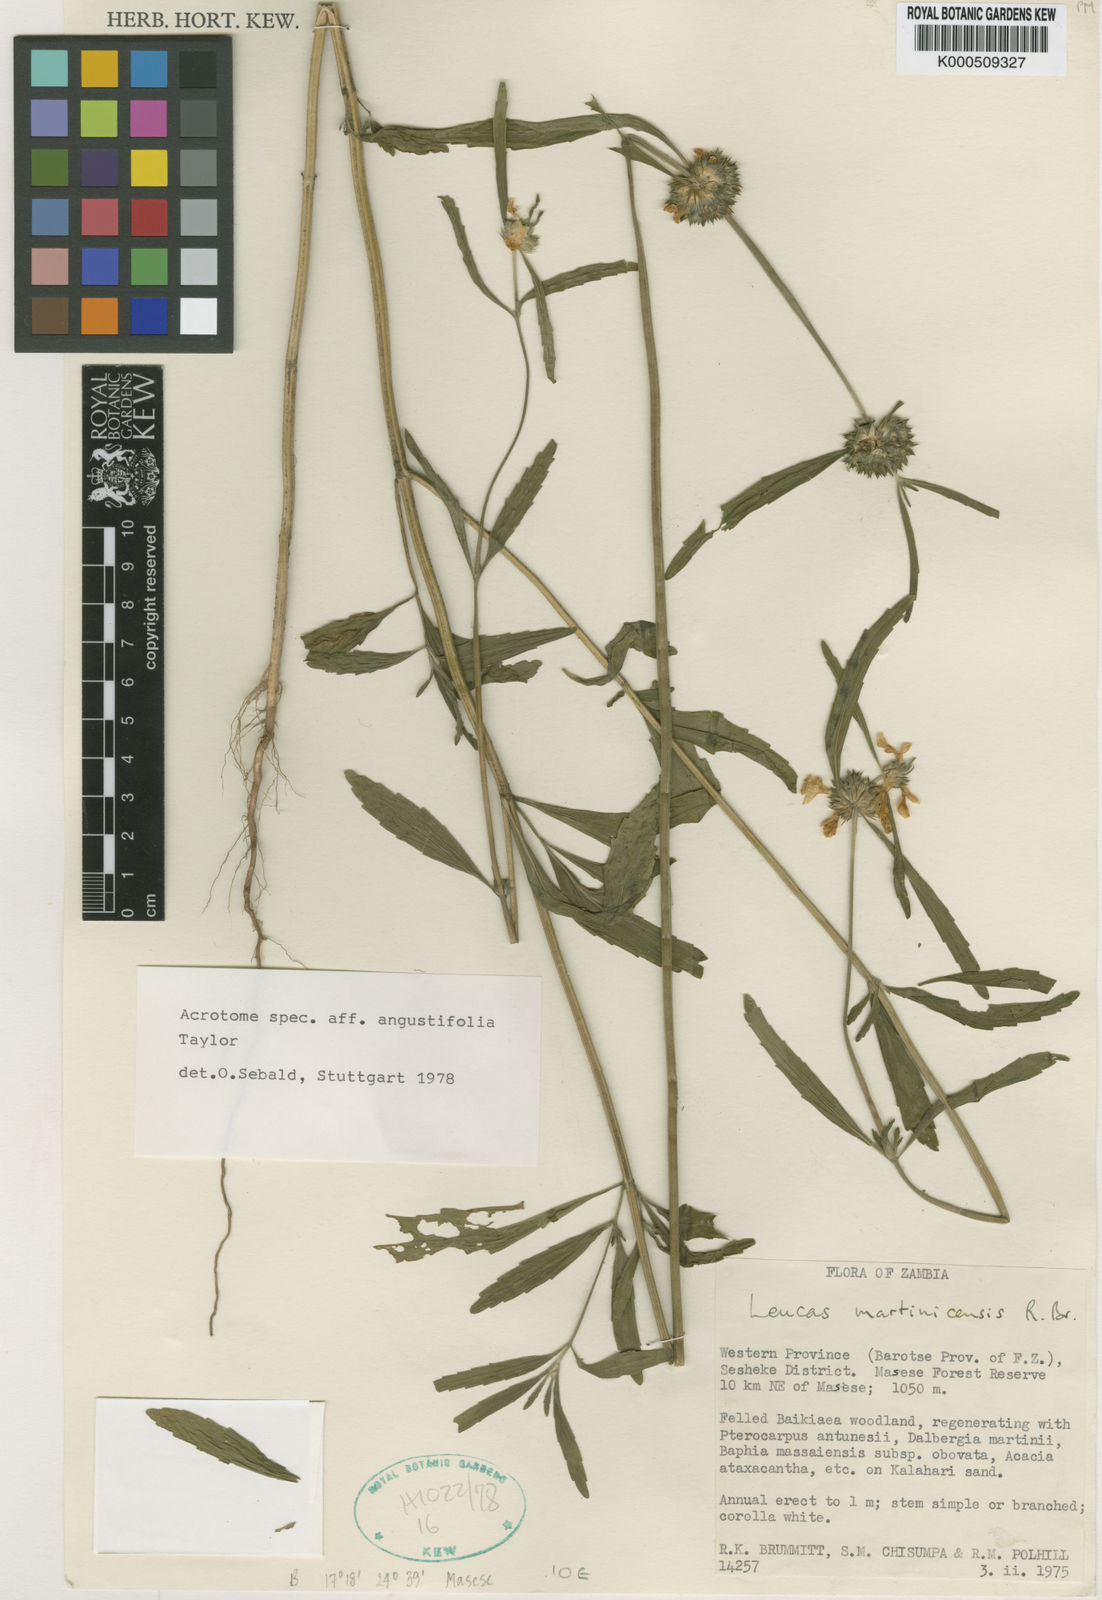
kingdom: Plantae
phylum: Tracheophyta
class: Magnoliopsida
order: Lamiales
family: Lamiaceae
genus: Acrotome
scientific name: Acrotome angustifolia
